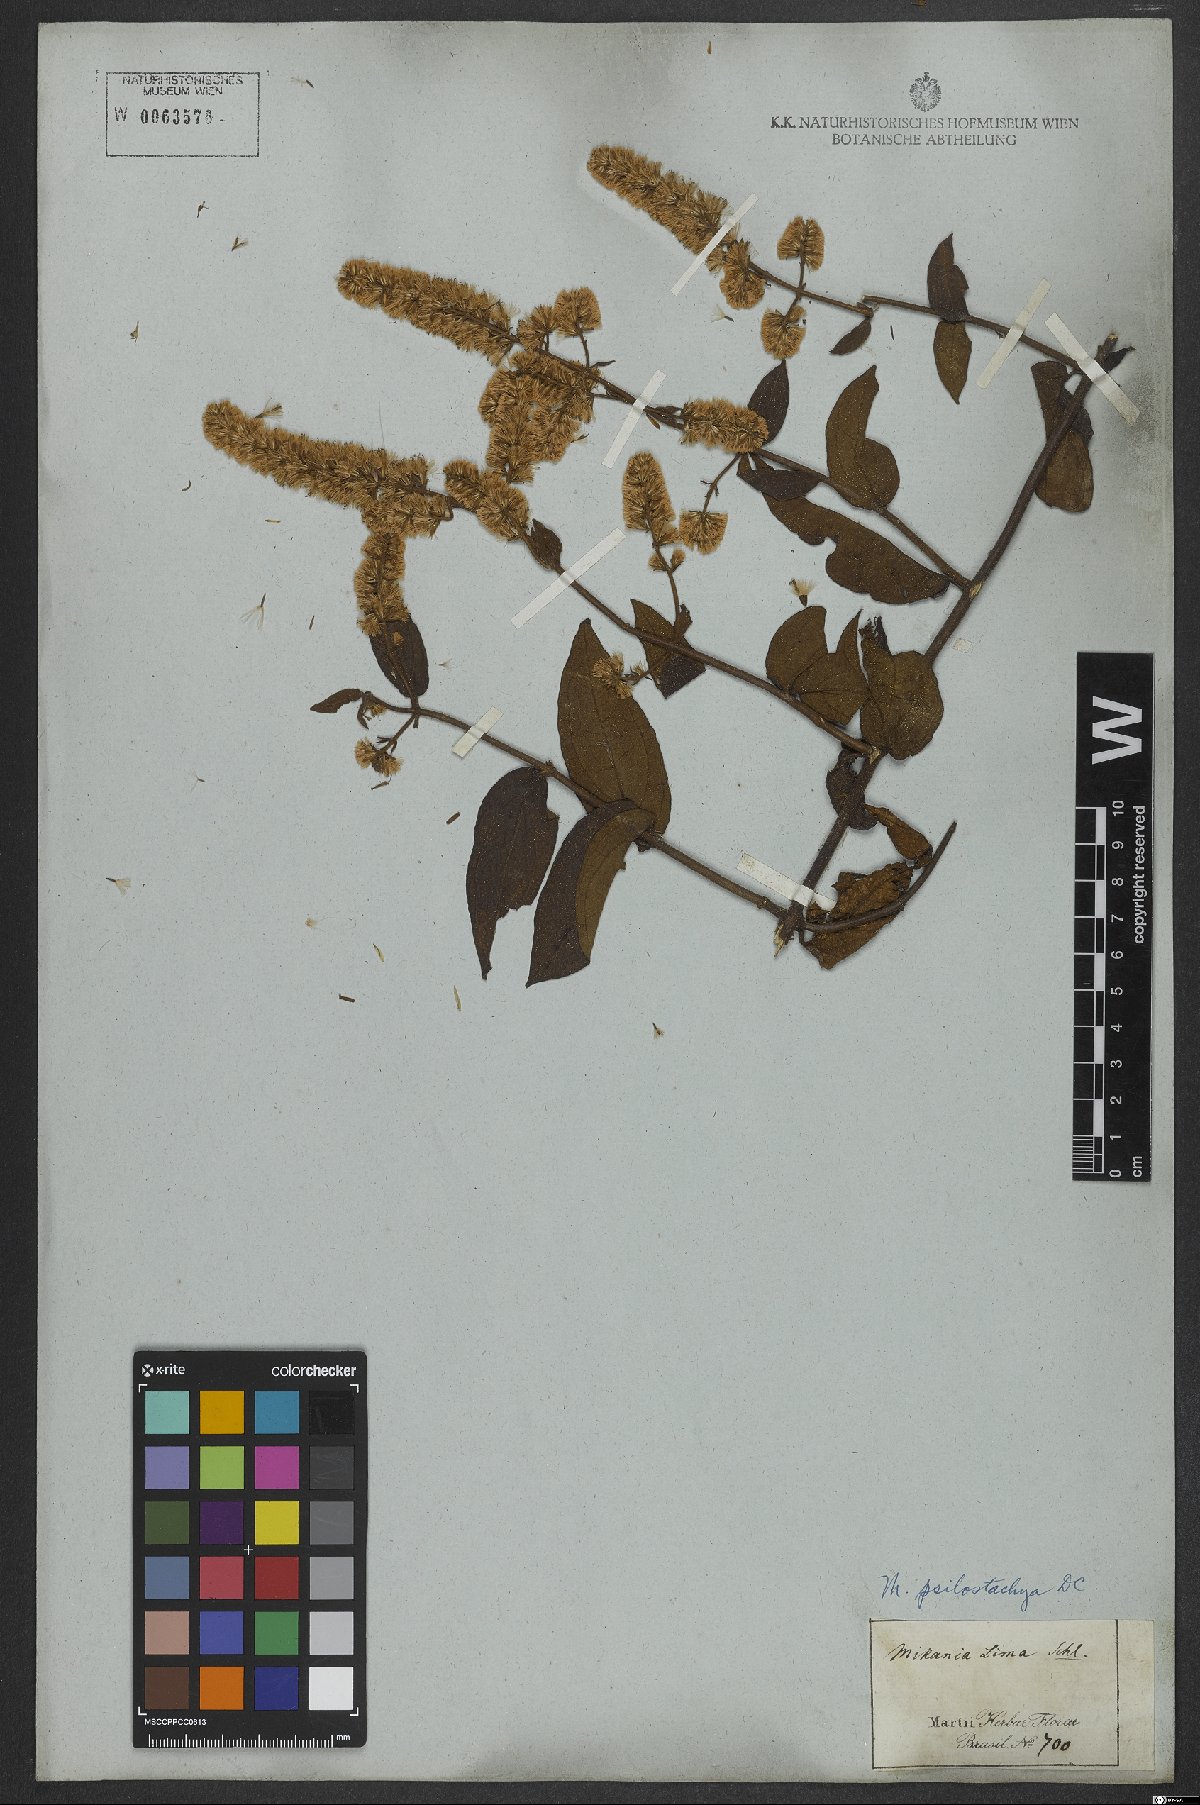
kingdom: Plantae
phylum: Tracheophyta
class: Magnoliopsida
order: Asterales
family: Asteraceae
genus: Mikania
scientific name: Mikania psilostachya
